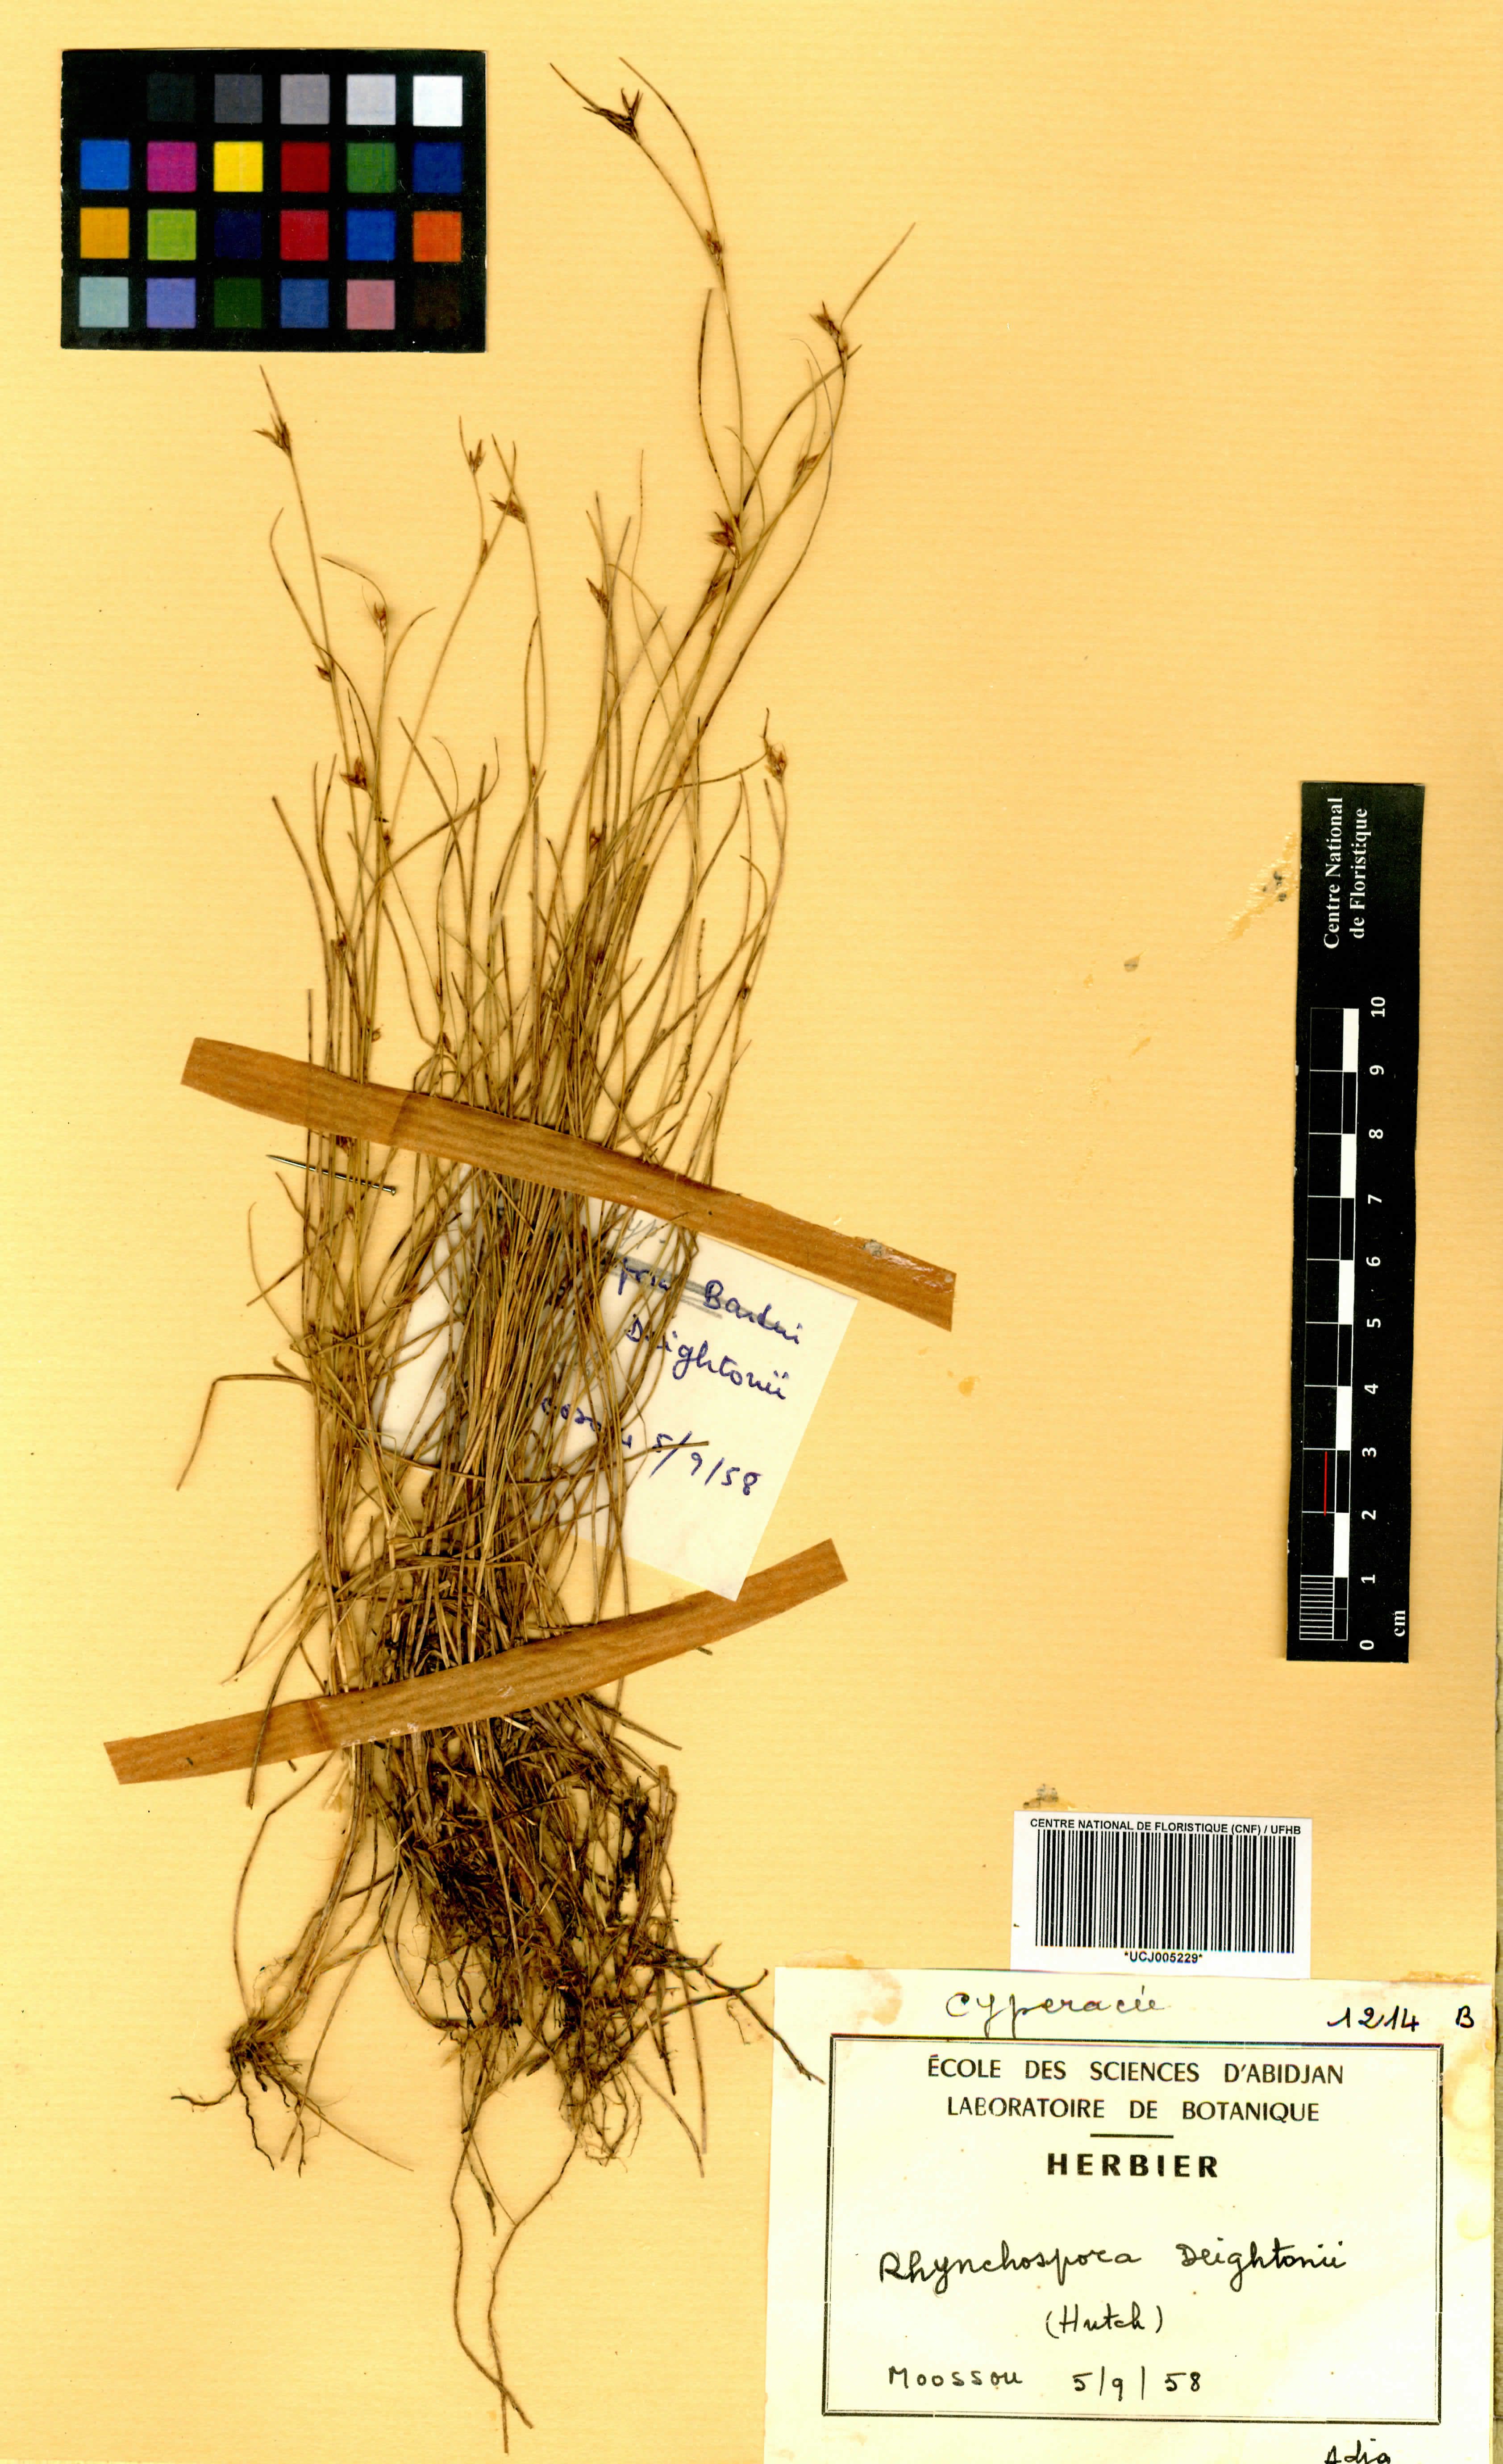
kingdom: Plantae
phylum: Tracheophyta
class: Liliopsida
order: Poales
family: Cyperaceae
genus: Rhynchospora
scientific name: Rhynchospora perrieri
